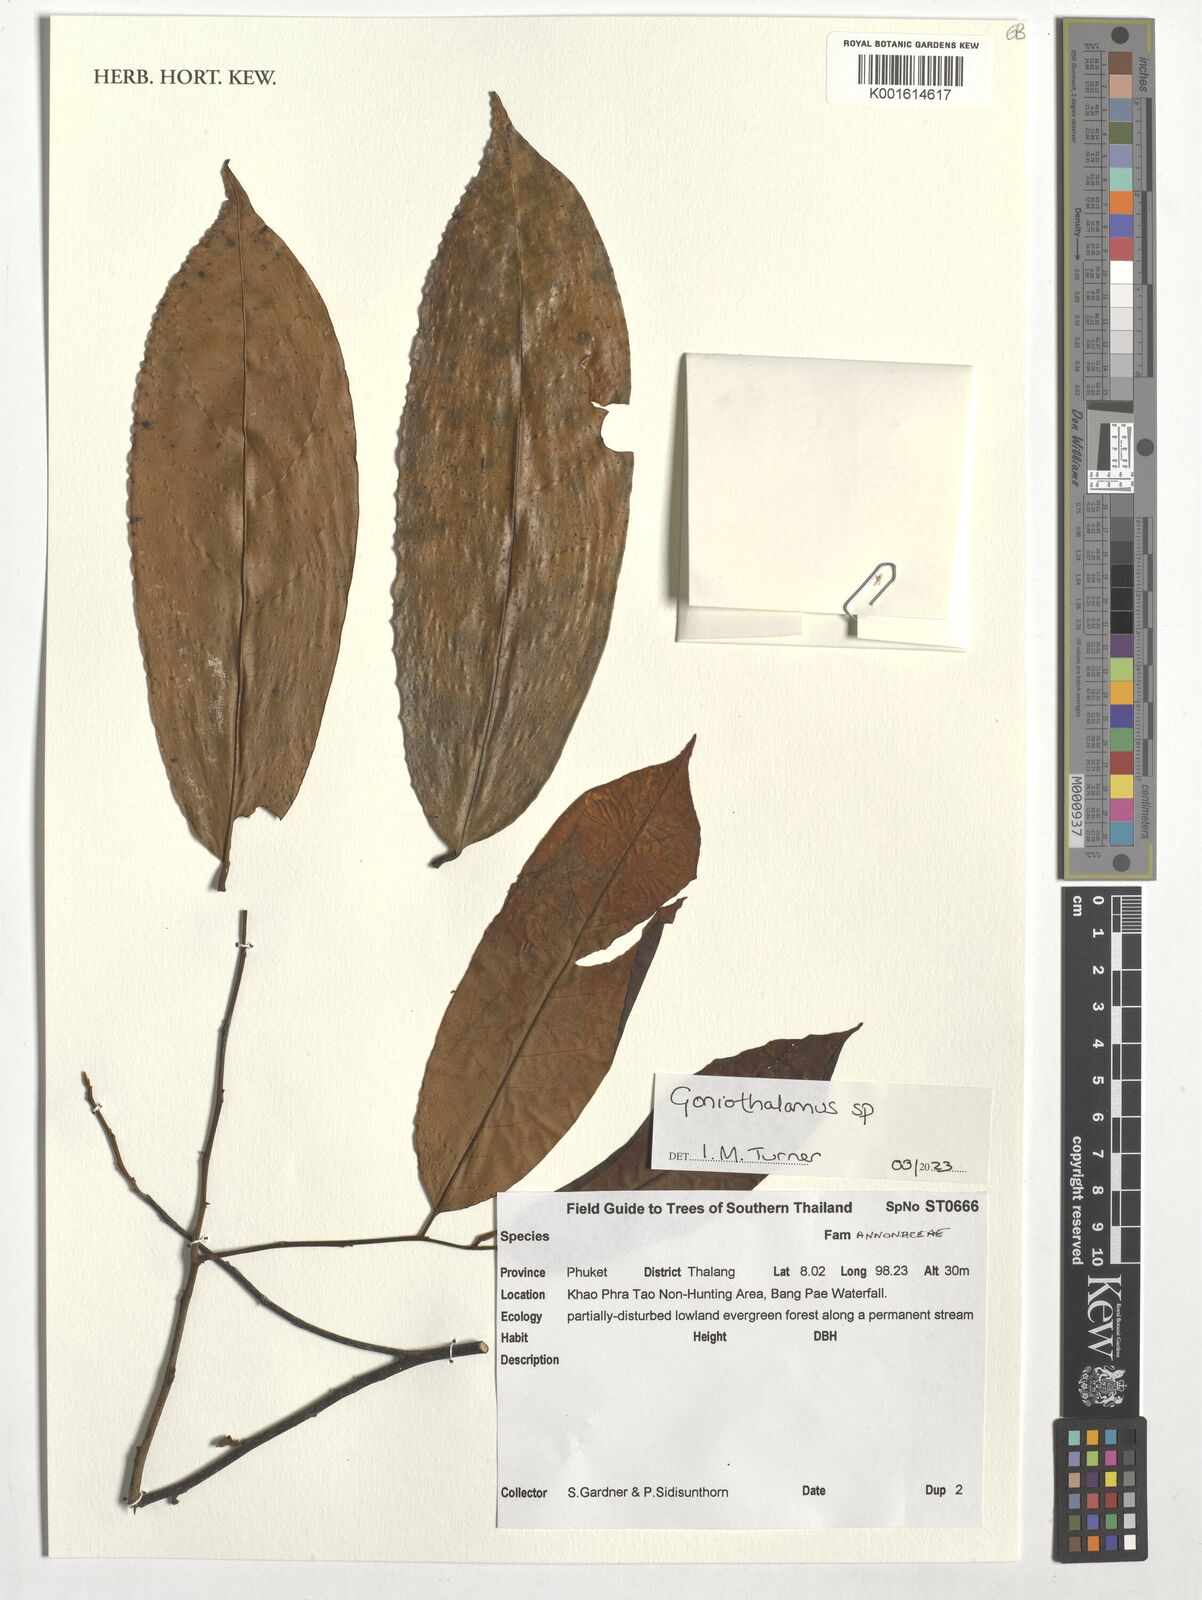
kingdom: Plantae
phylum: Tracheophyta
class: Magnoliopsida
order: Magnoliales
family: Annonaceae
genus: Orophea
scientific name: Orophea
